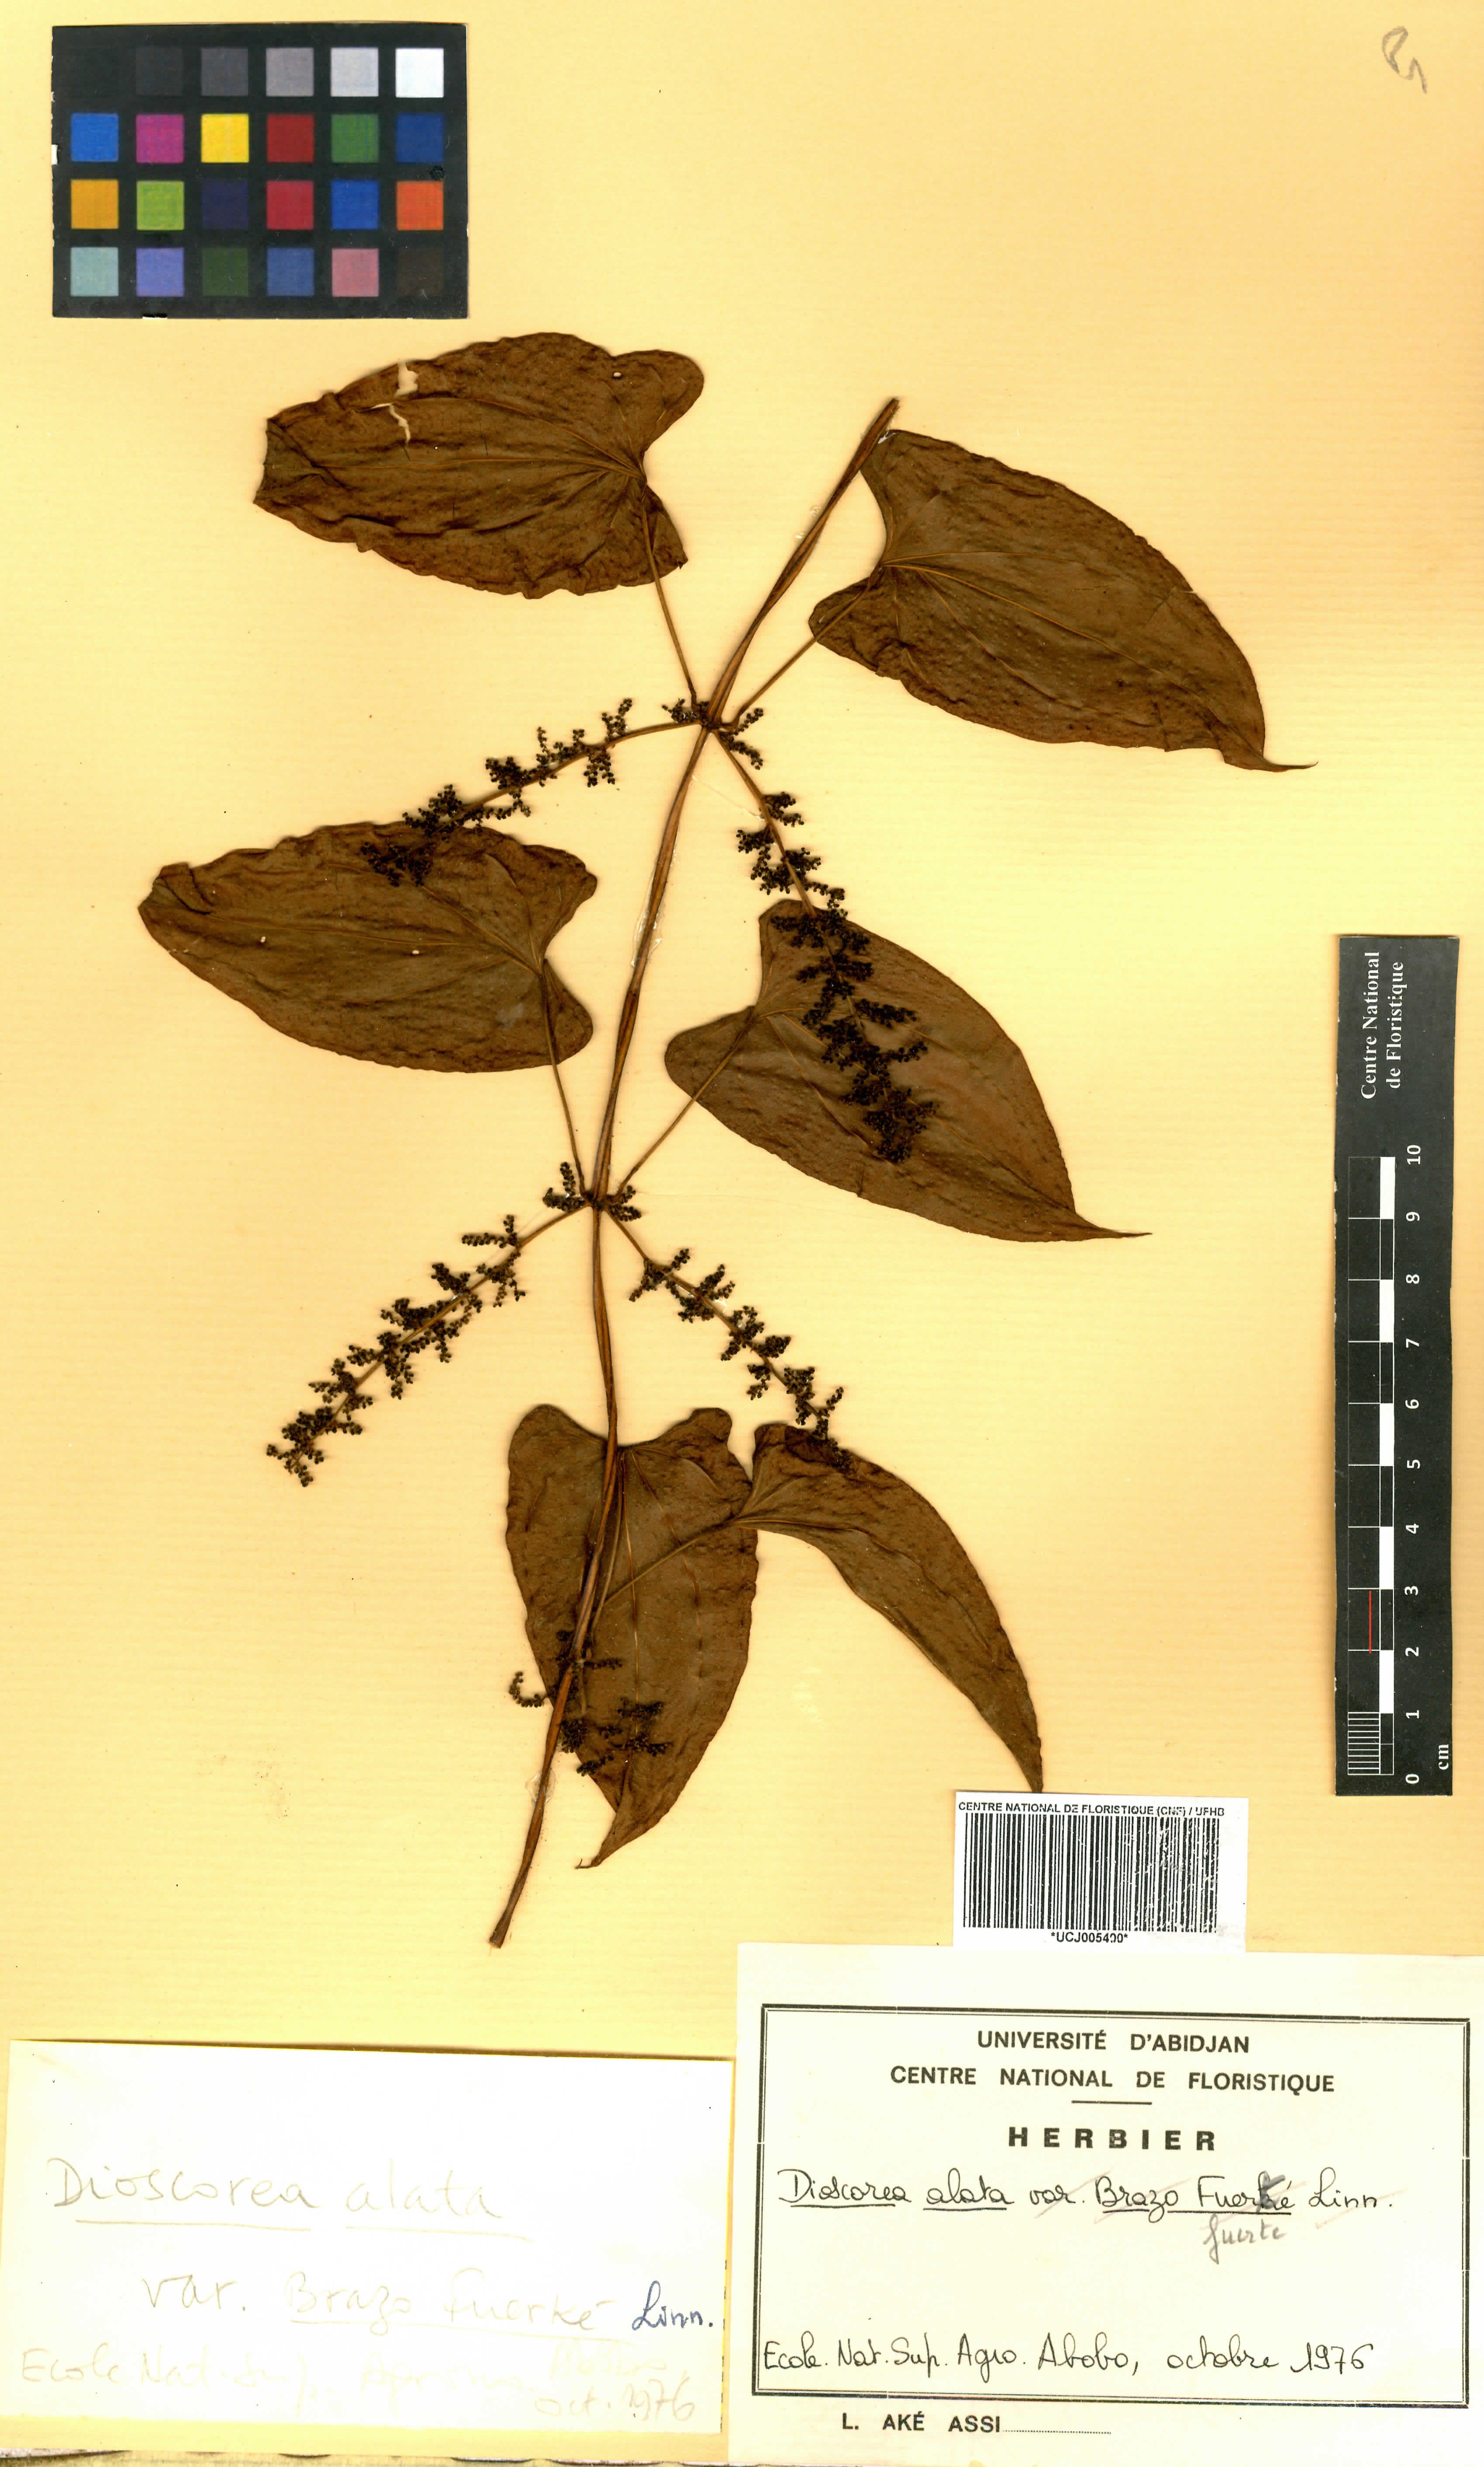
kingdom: Plantae
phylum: Tracheophyta
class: Liliopsida
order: Dioscoreales
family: Dioscoreaceae
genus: Dioscorea
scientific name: Dioscorea alata
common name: Water yam
